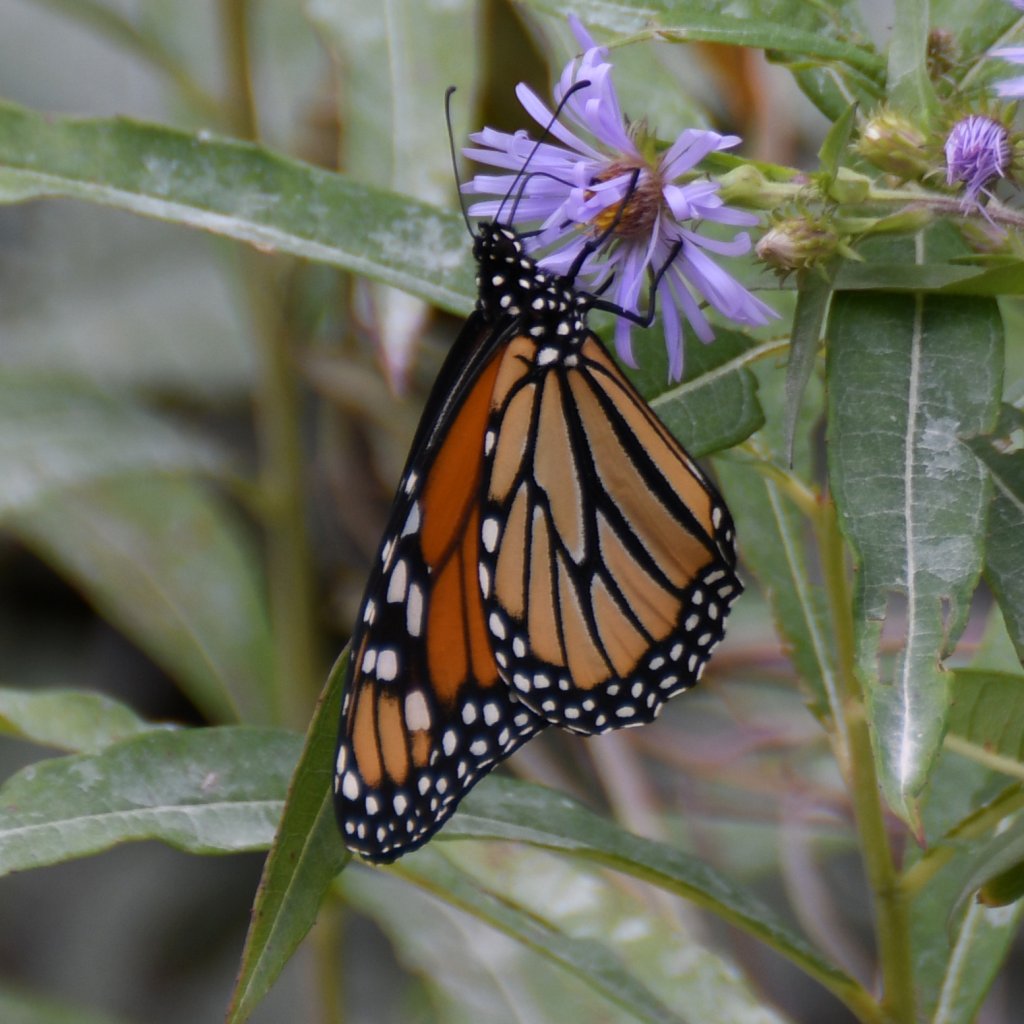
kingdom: Animalia
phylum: Arthropoda
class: Insecta
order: Lepidoptera
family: Nymphalidae
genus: Danaus
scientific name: Danaus plexippus
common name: Monarch
